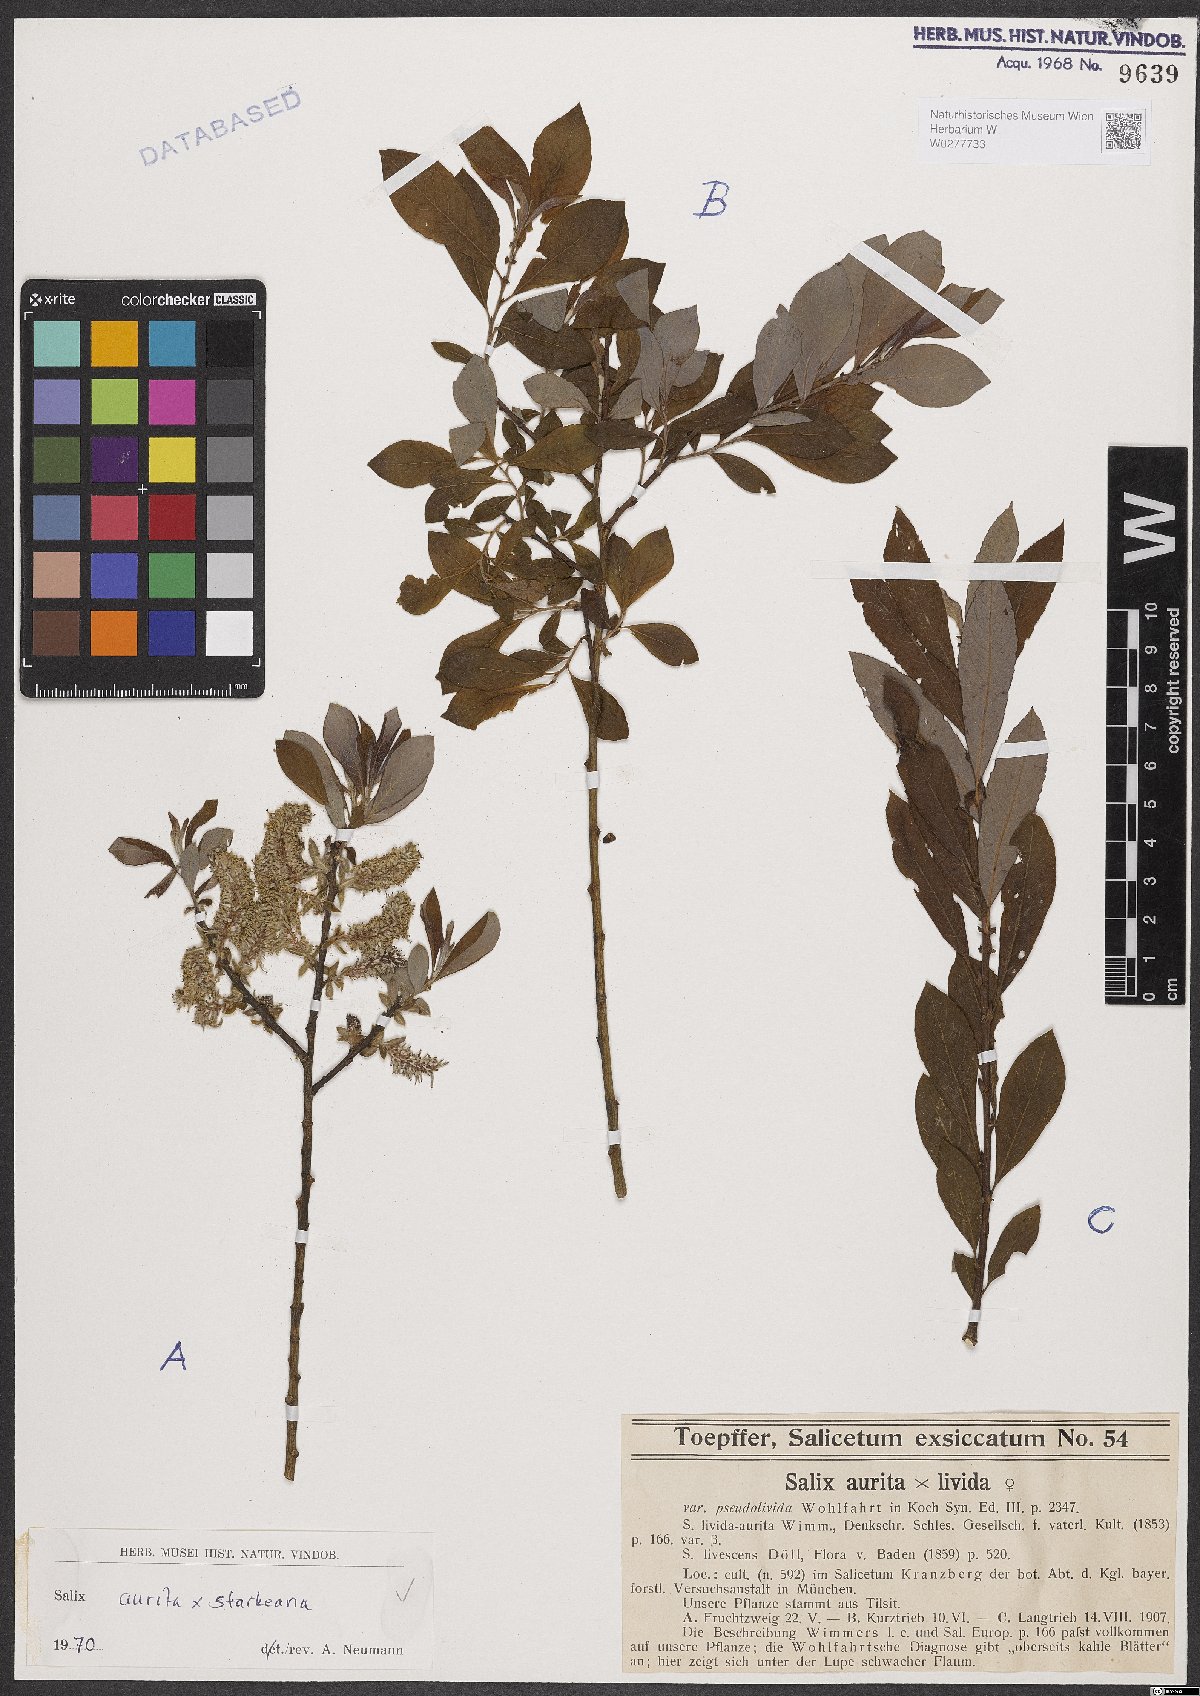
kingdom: Plantae
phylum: Tracheophyta
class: Magnoliopsida
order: Malpighiales
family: Salicaceae
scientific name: Salicaceae
